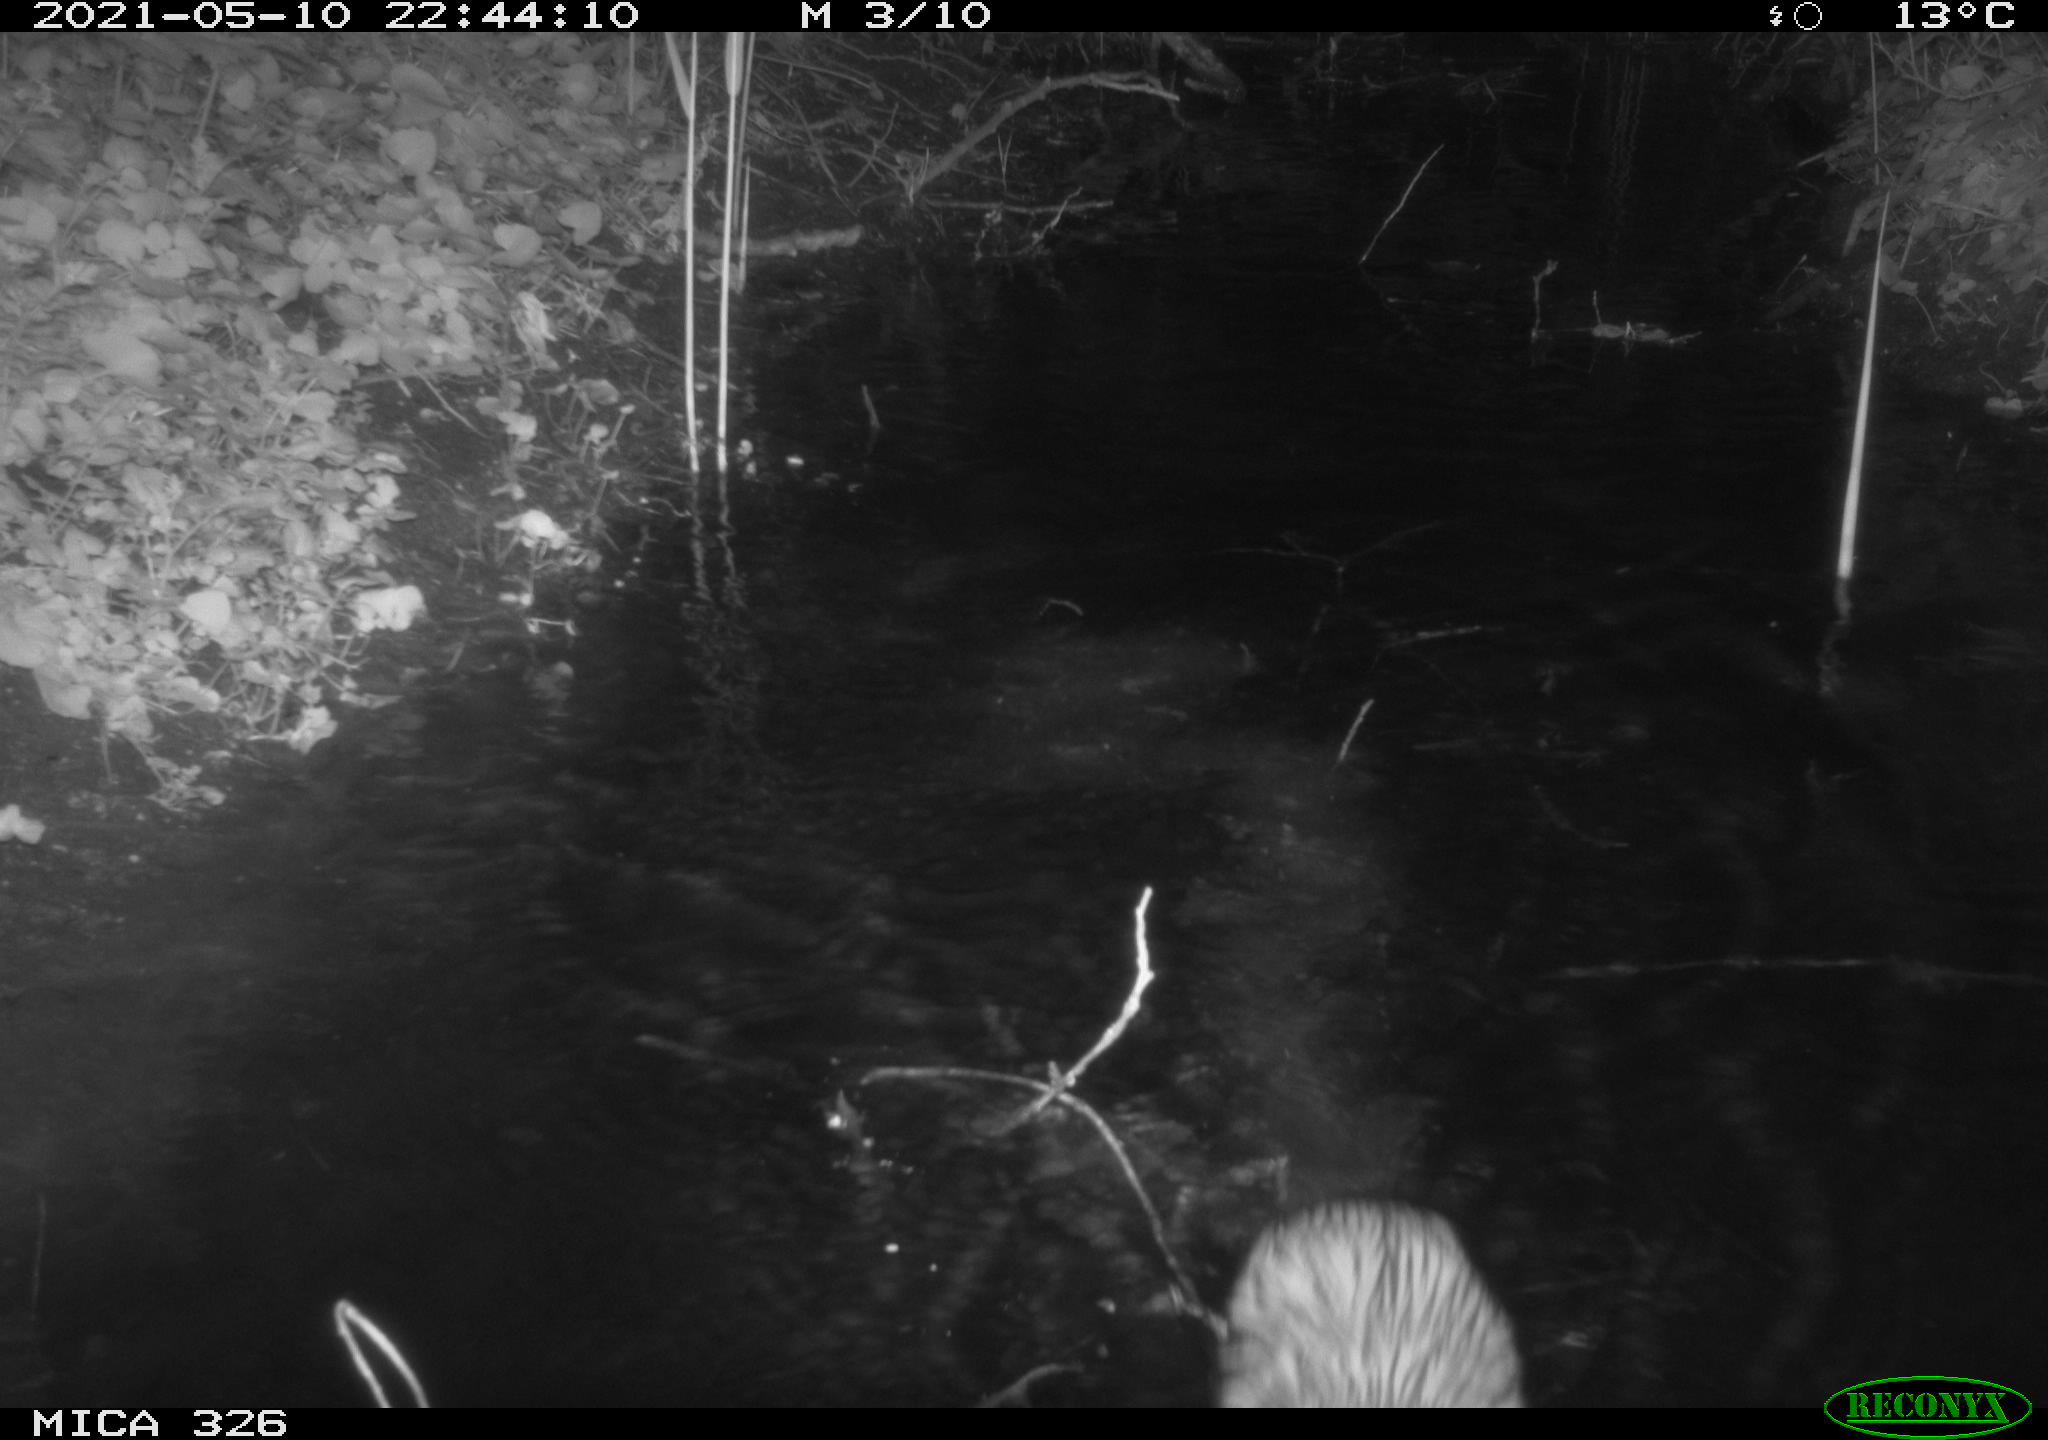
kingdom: Animalia
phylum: Chordata
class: Mammalia
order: Rodentia
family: Cricetidae
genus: Ondatra
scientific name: Ondatra zibethicus
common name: Muskrat
